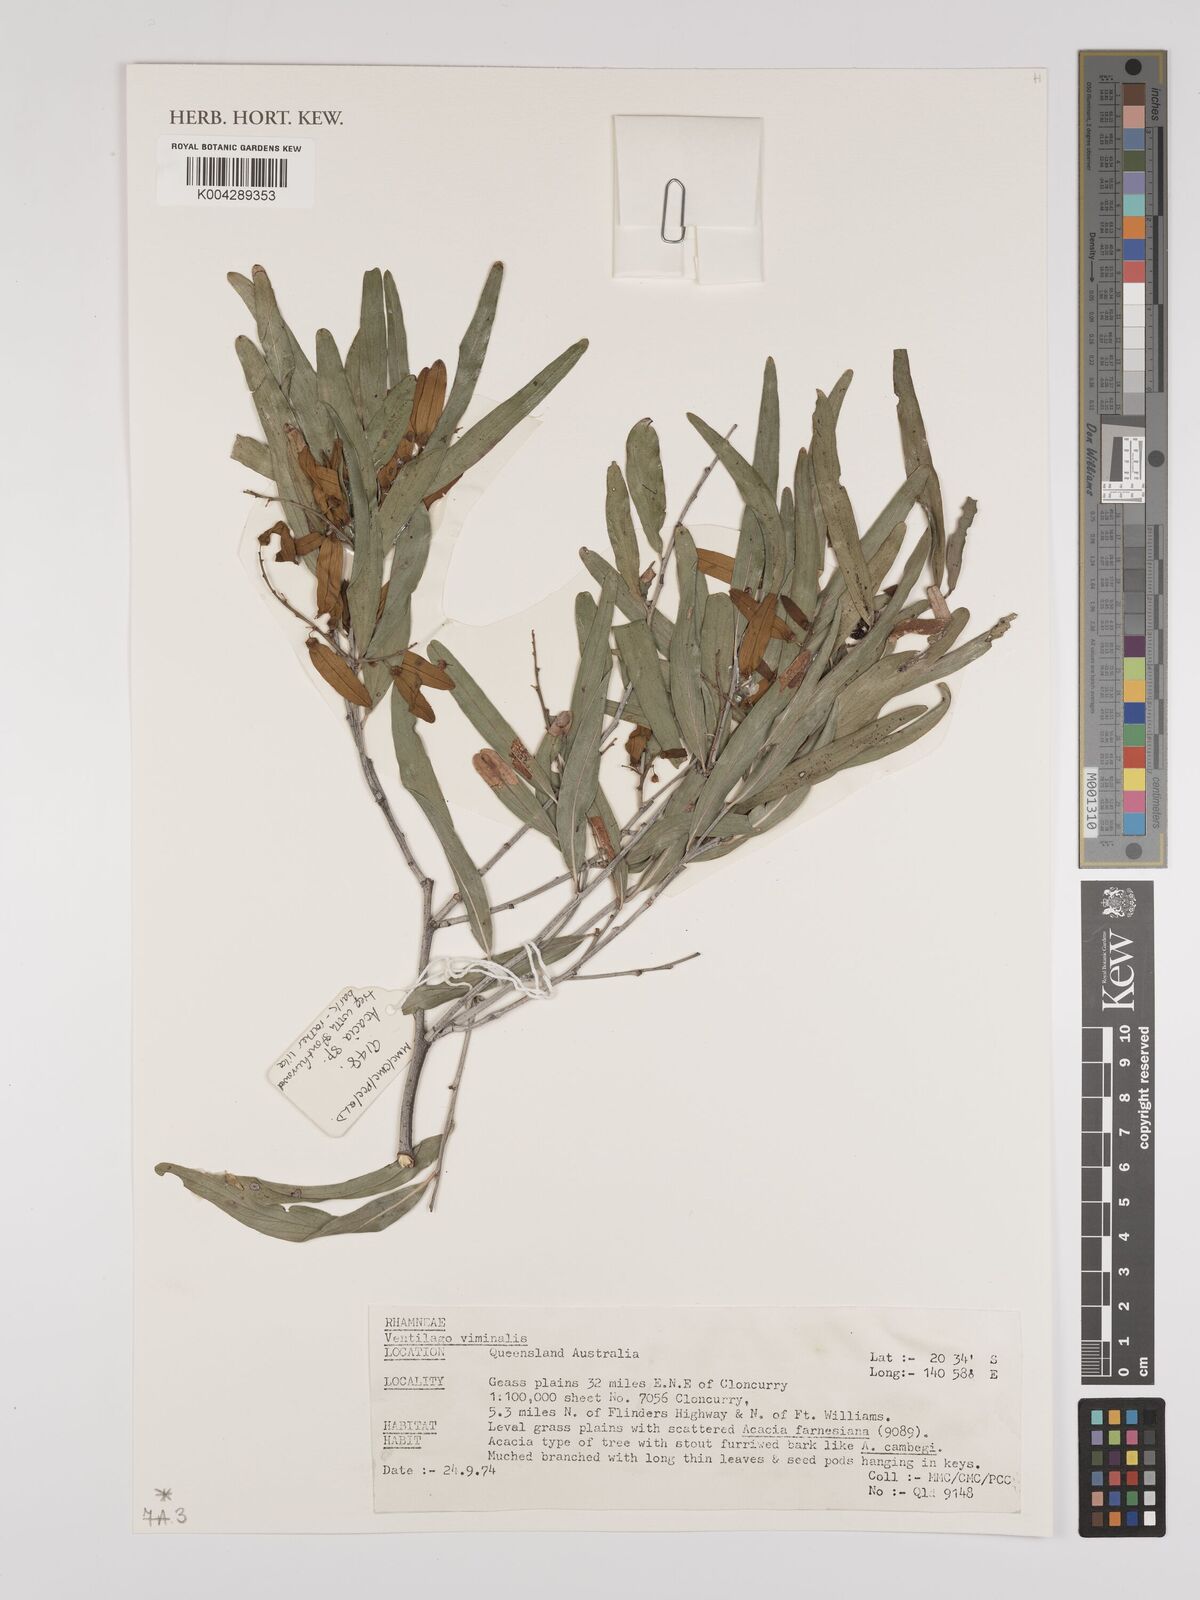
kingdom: Plantae
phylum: Tracheophyta
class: Magnoliopsida
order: Rosales
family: Rhamnaceae
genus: Ventilago
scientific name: Ventilago viminalis
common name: Medicine-bark
